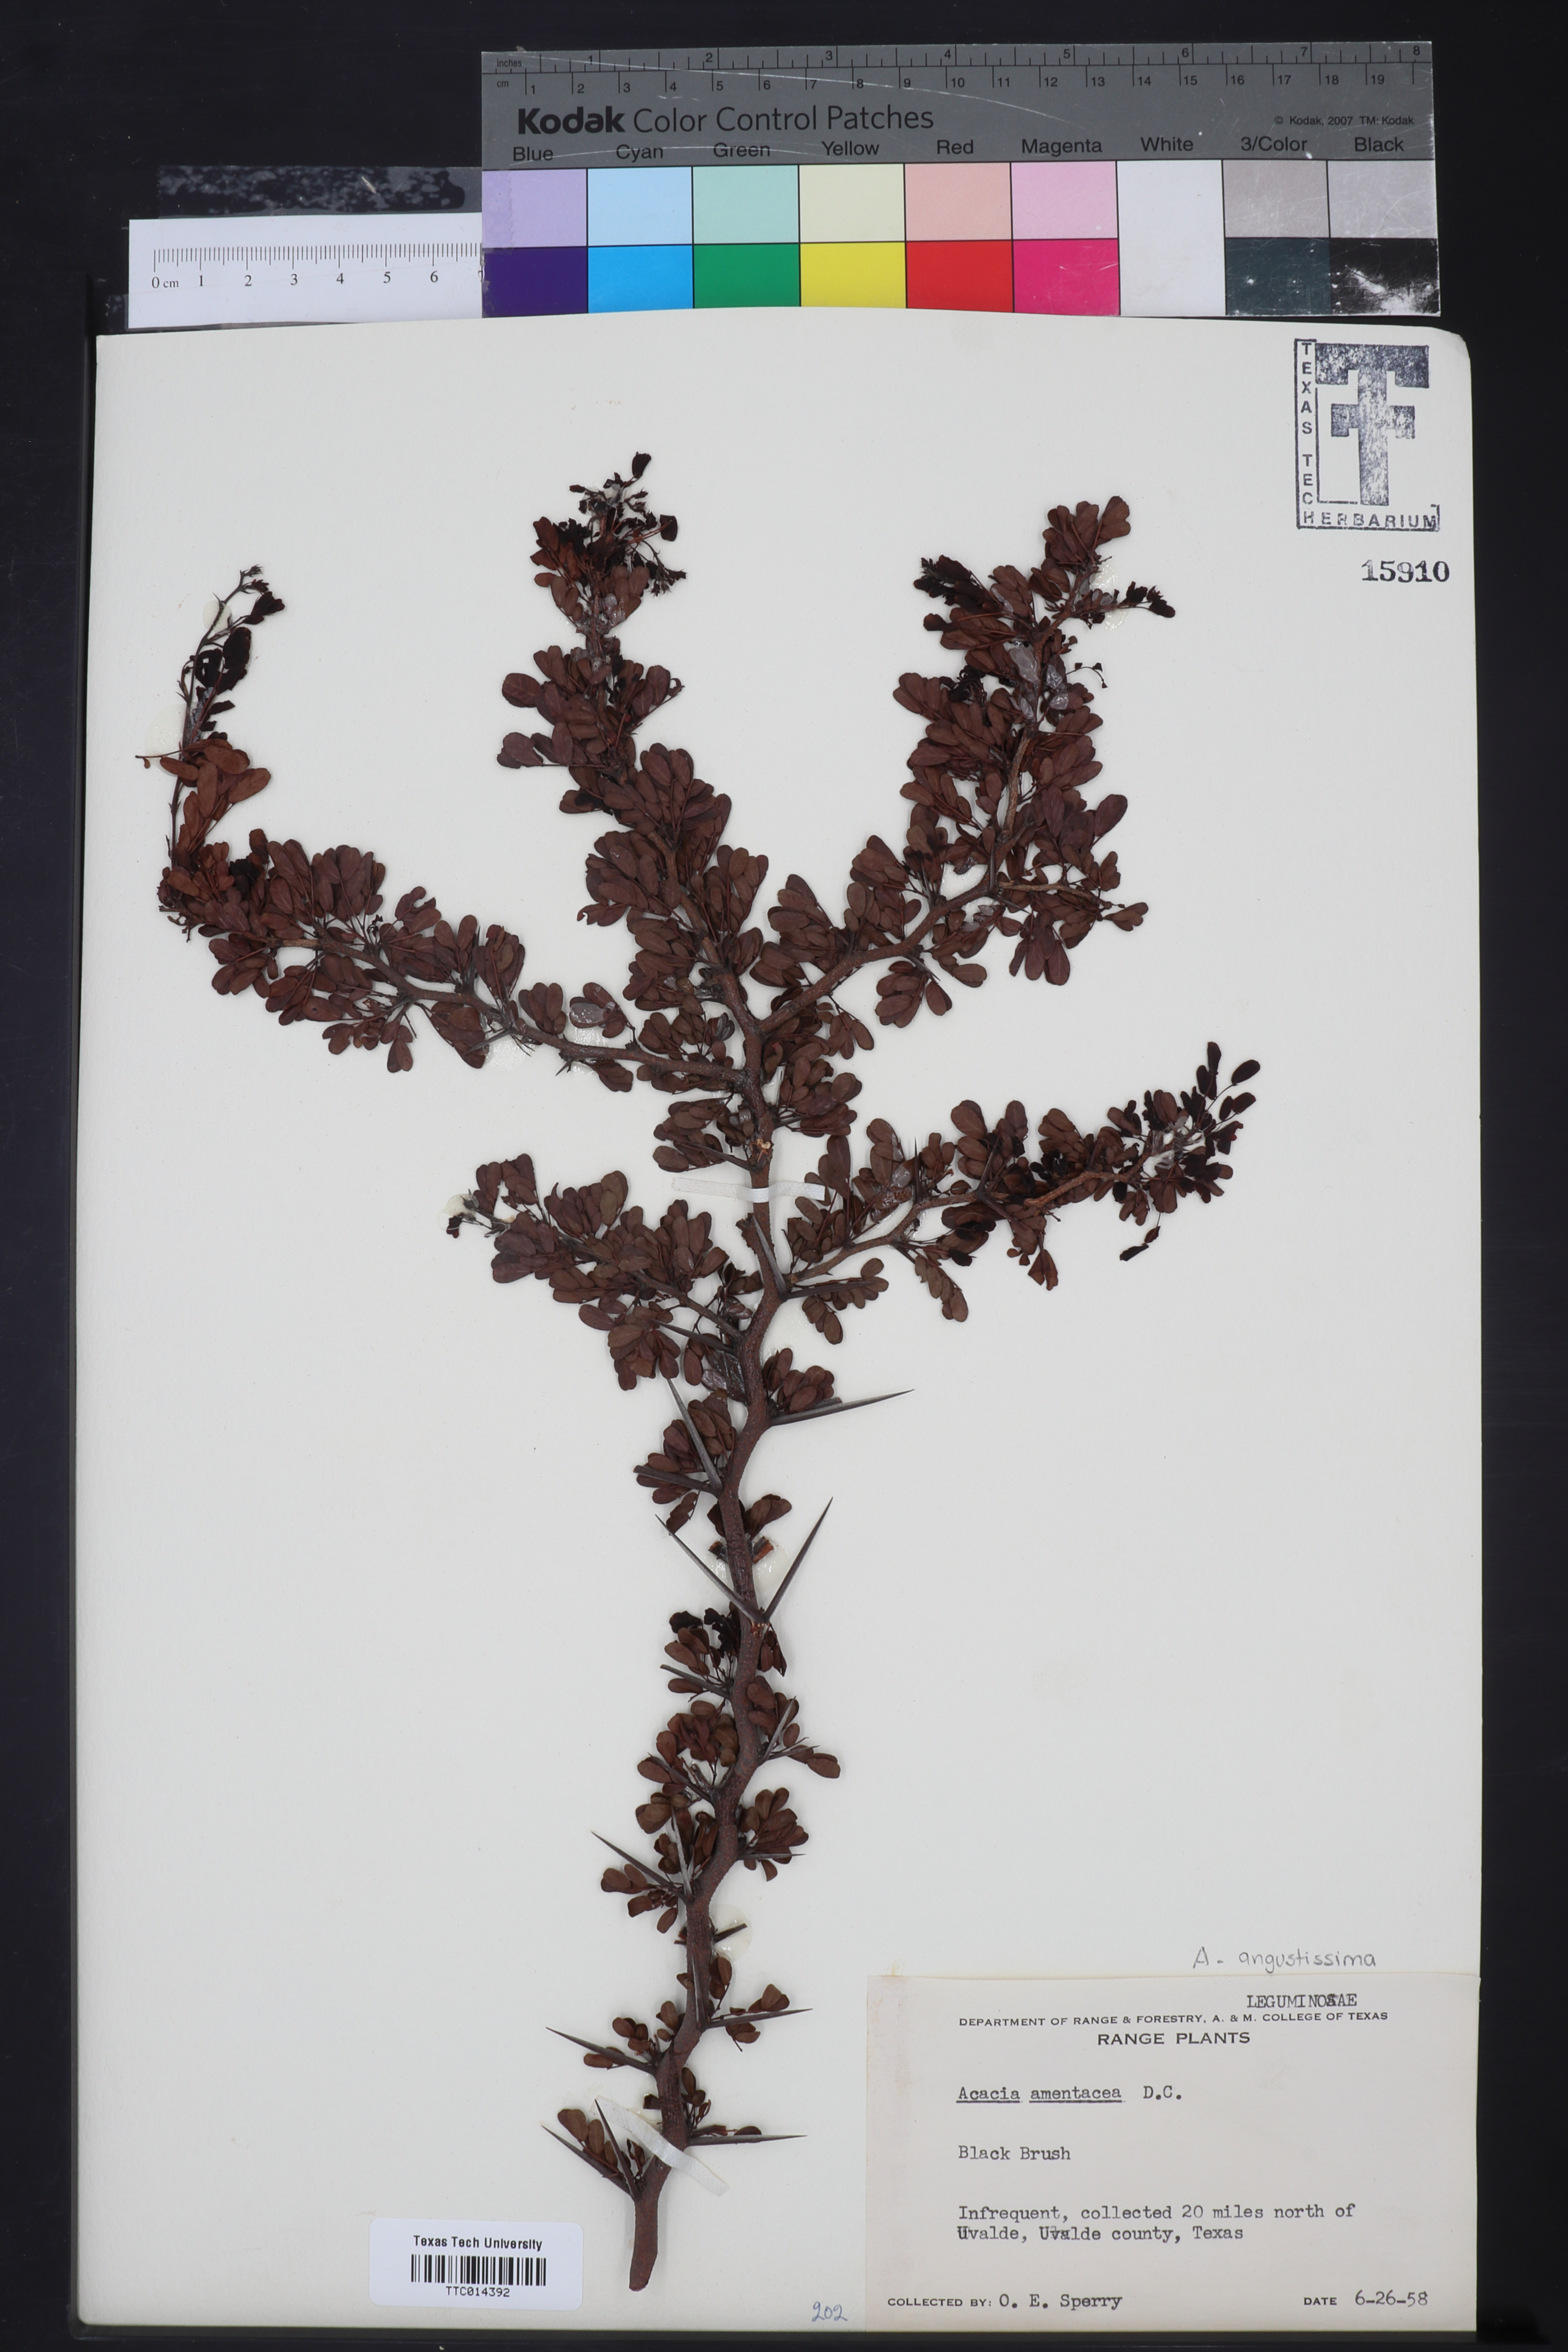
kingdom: Plantae
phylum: Tracheophyta
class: Magnoliopsida
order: Fabales
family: Fabaceae
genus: Vachellia
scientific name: Vachellia rigidula
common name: Blackbrush
